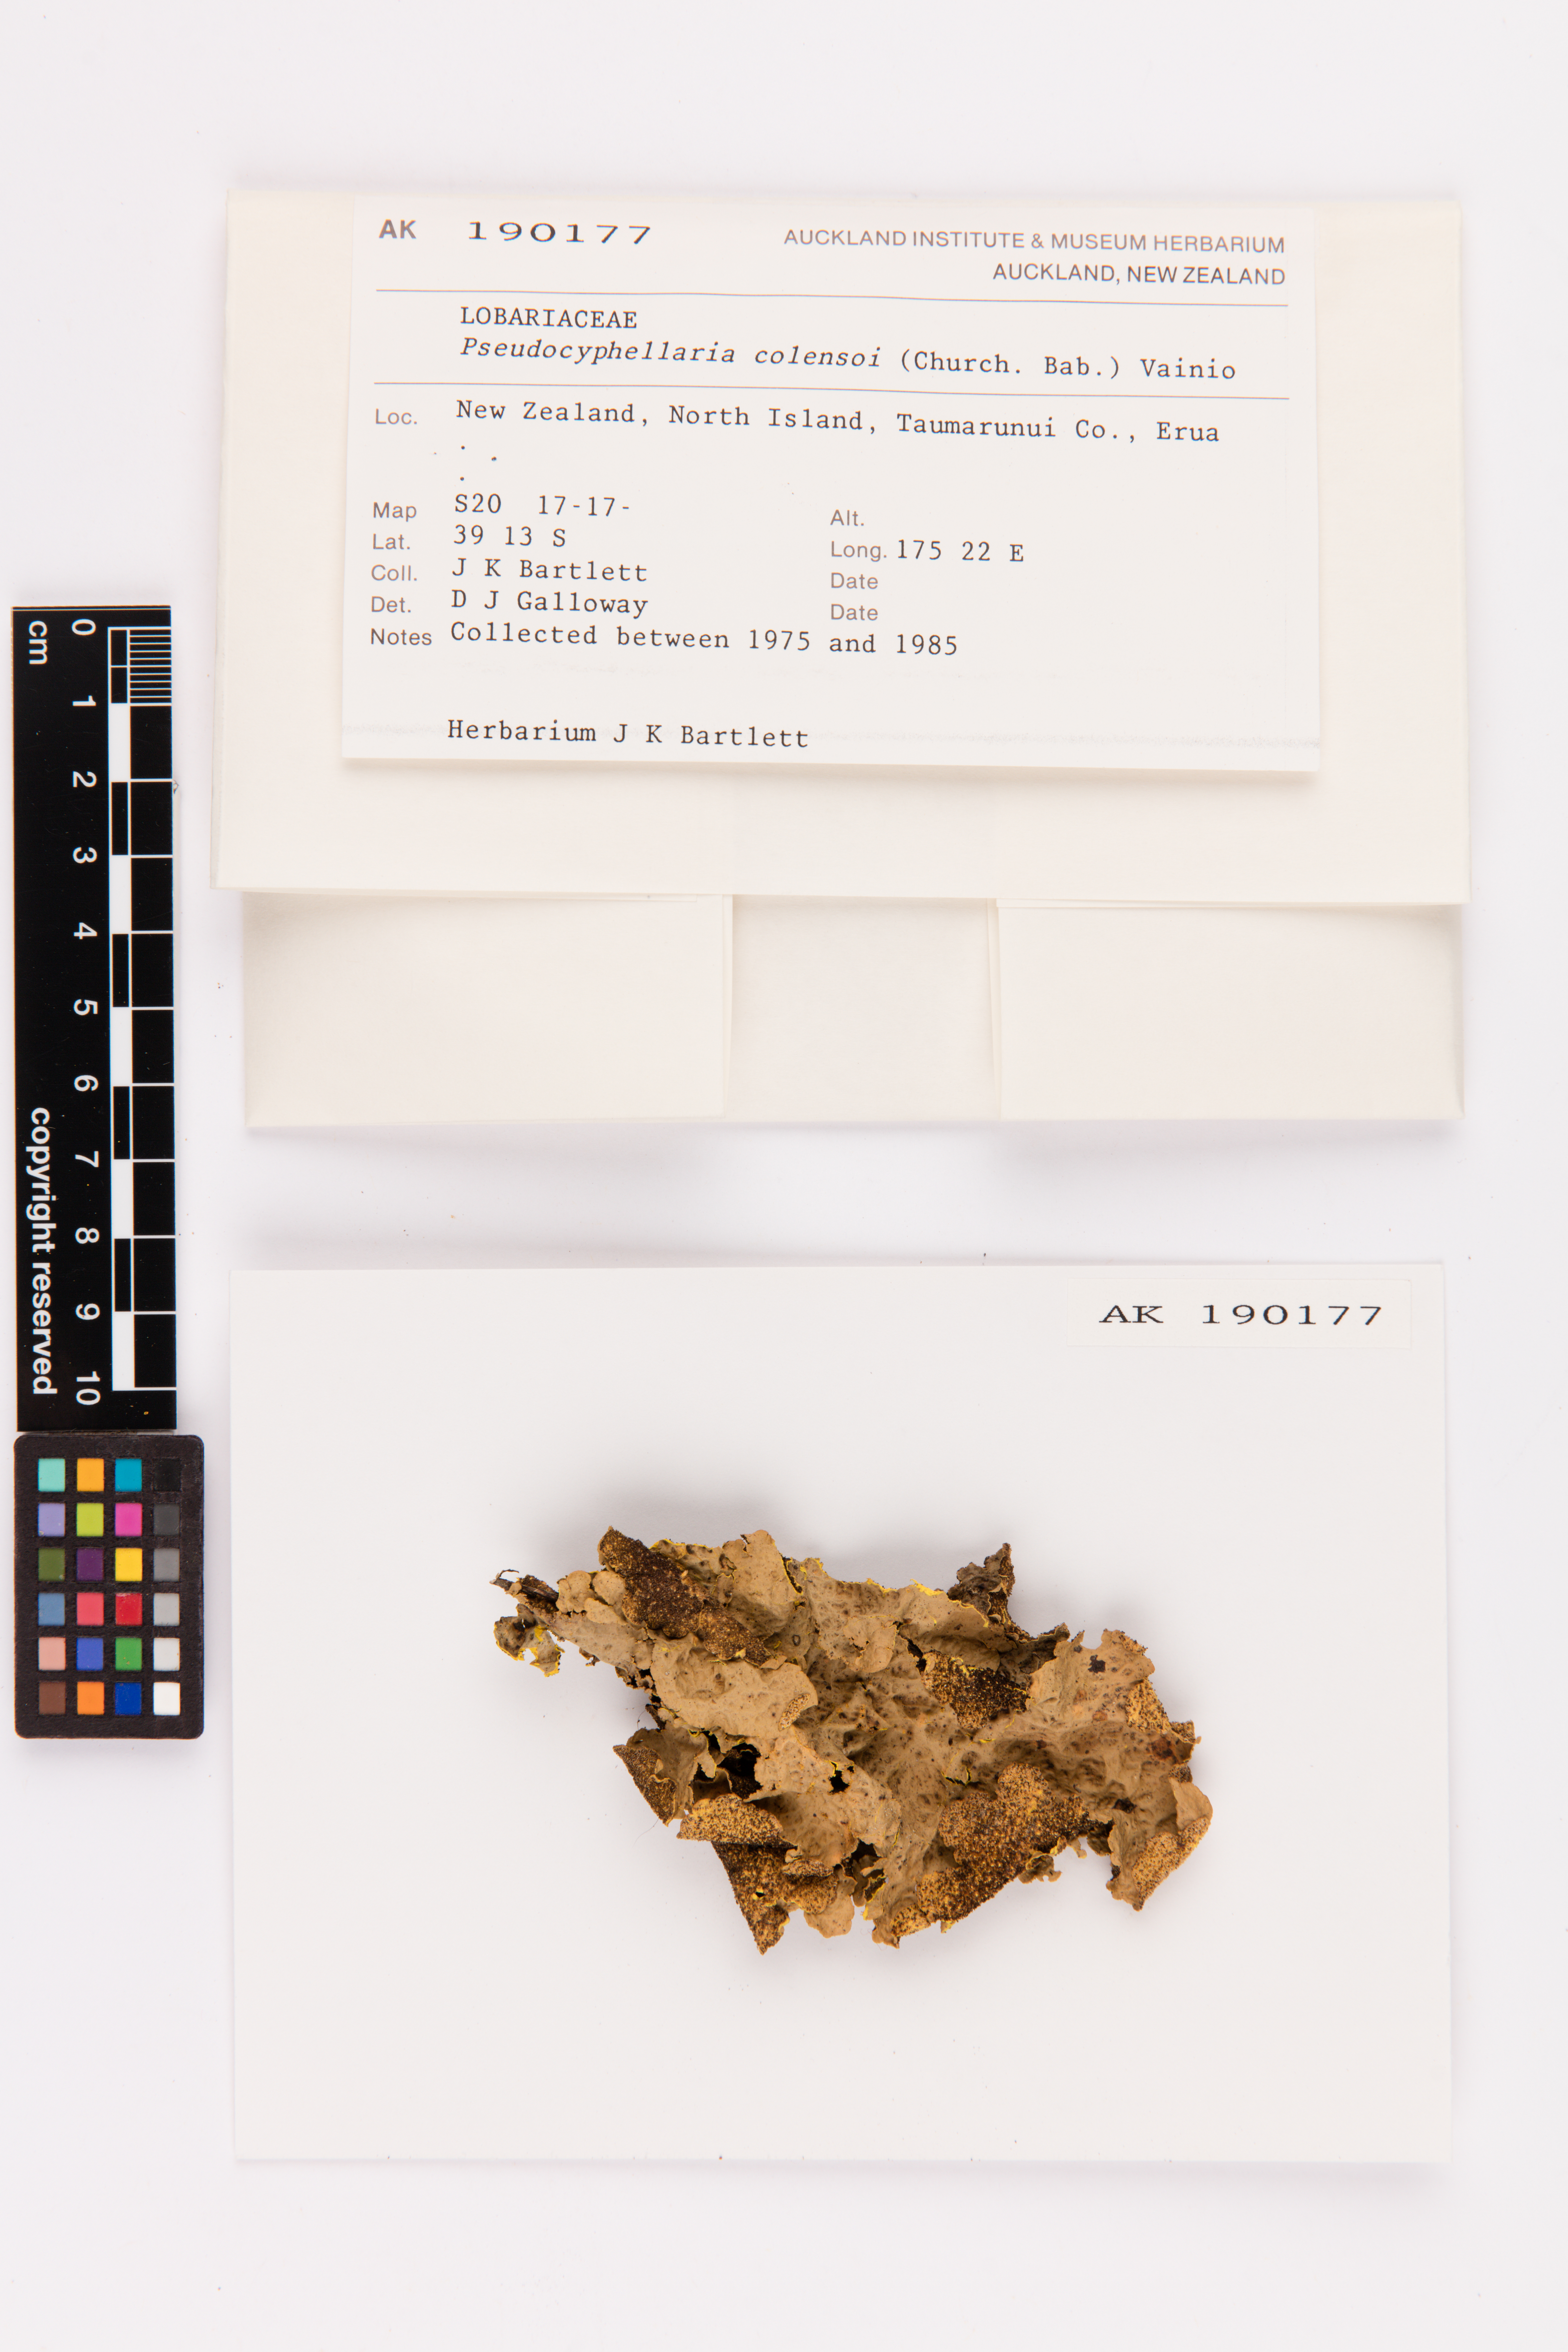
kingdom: Fungi
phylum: Ascomycota
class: Lecanoromycetes
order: Peltigerales
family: Lobariaceae
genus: Yarrumia
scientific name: Yarrumia colensoi
